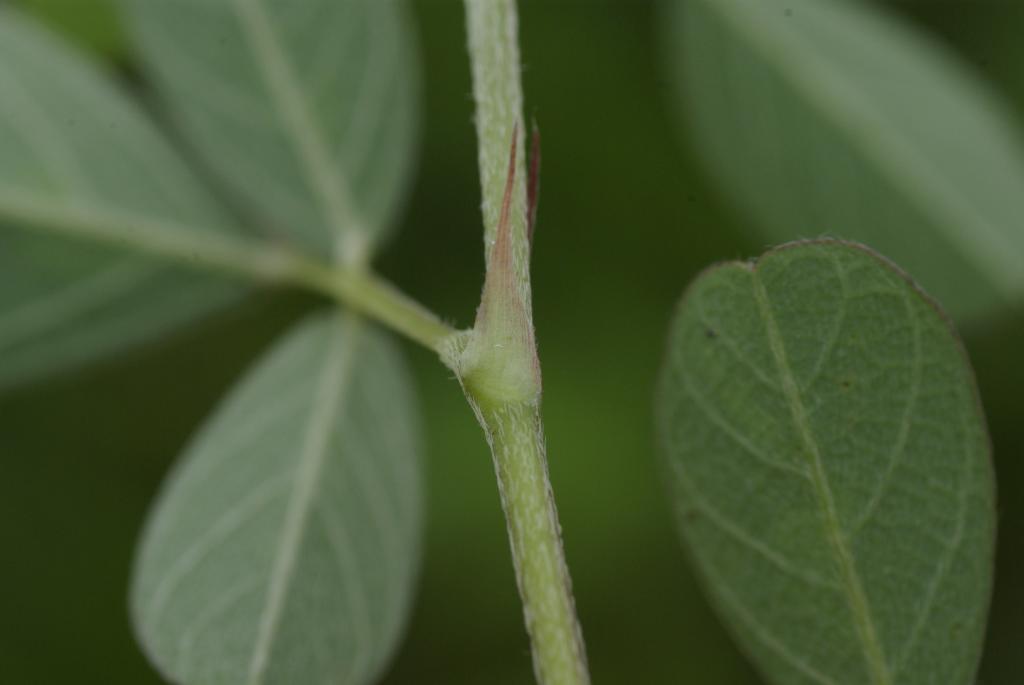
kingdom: Plantae
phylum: Tracheophyta
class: Magnoliopsida
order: Fabales
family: Fabaceae
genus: Grona
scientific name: Grona heterocarpos
